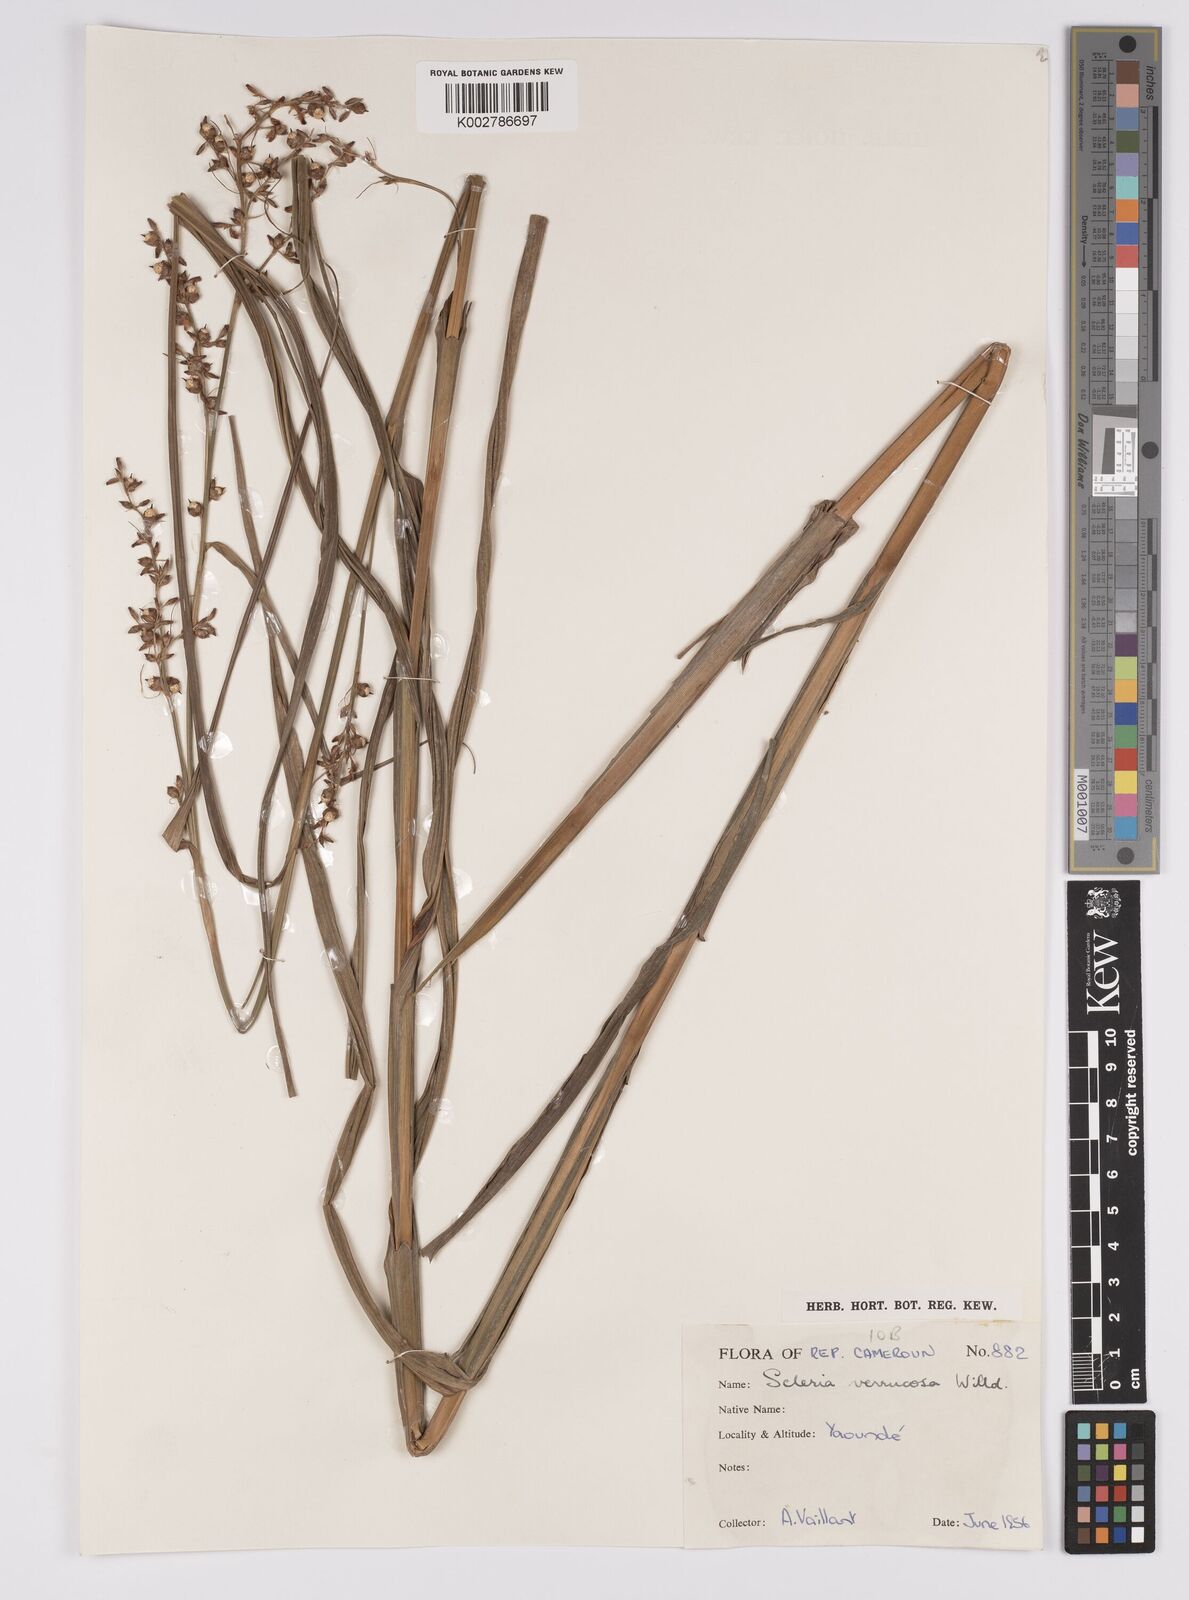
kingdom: Plantae
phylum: Tracheophyta
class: Liliopsida
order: Poales
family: Cyperaceae
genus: Scleria
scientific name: Scleria verrucosa
